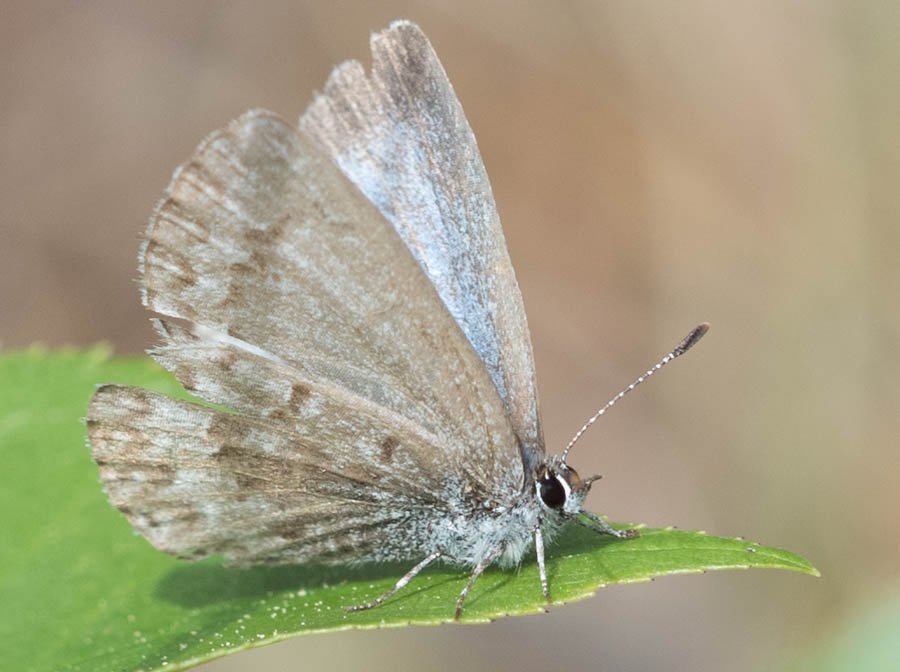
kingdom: Animalia
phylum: Arthropoda
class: Insecta
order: Lepidoptera
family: Lycaenidae
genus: Celastrina
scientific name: Celastrina lucia
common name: Northern Spring Azure
